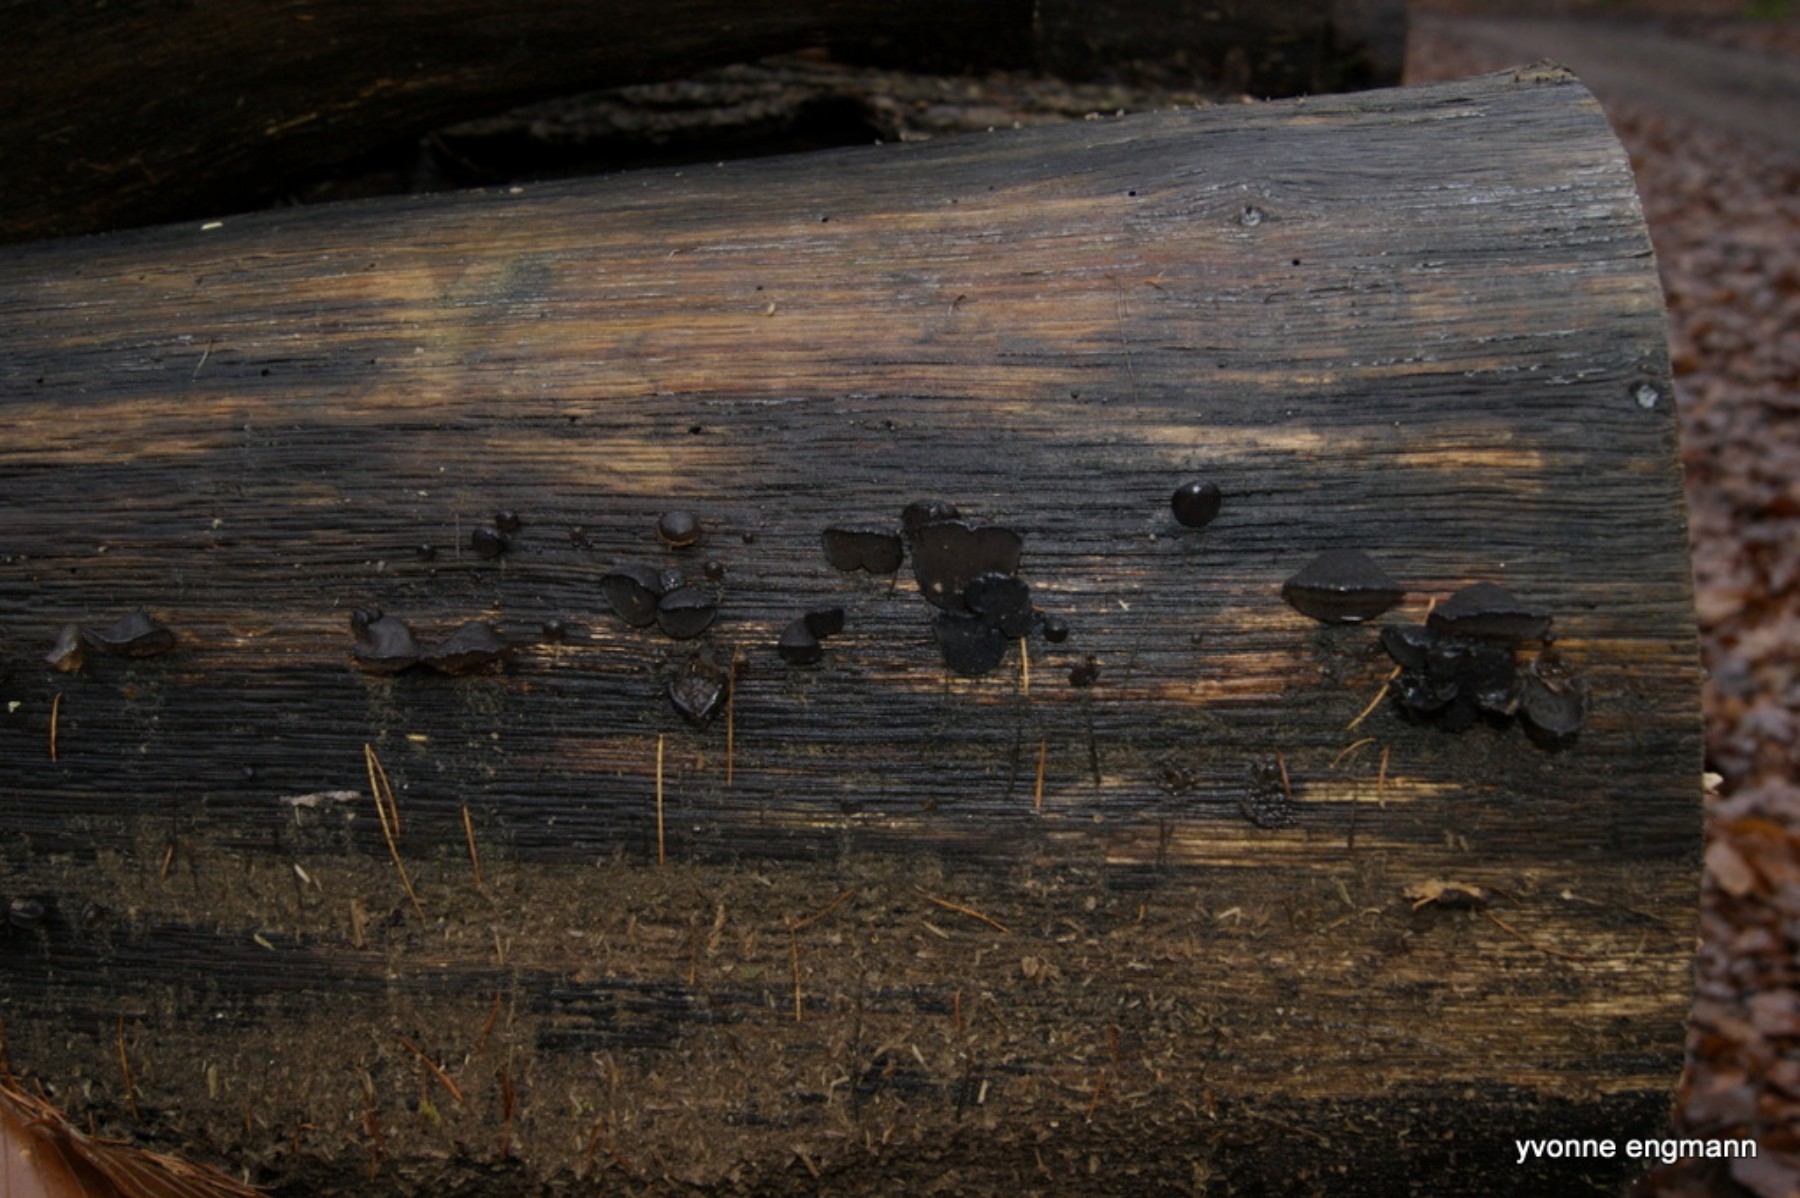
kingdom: Fungi
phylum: Ascomycota
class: Leotiomycetes
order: Phacidiales
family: Phacidiaceae
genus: Bulgaria
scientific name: Bulgaria inquinans
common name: afsmittende topsvamp
